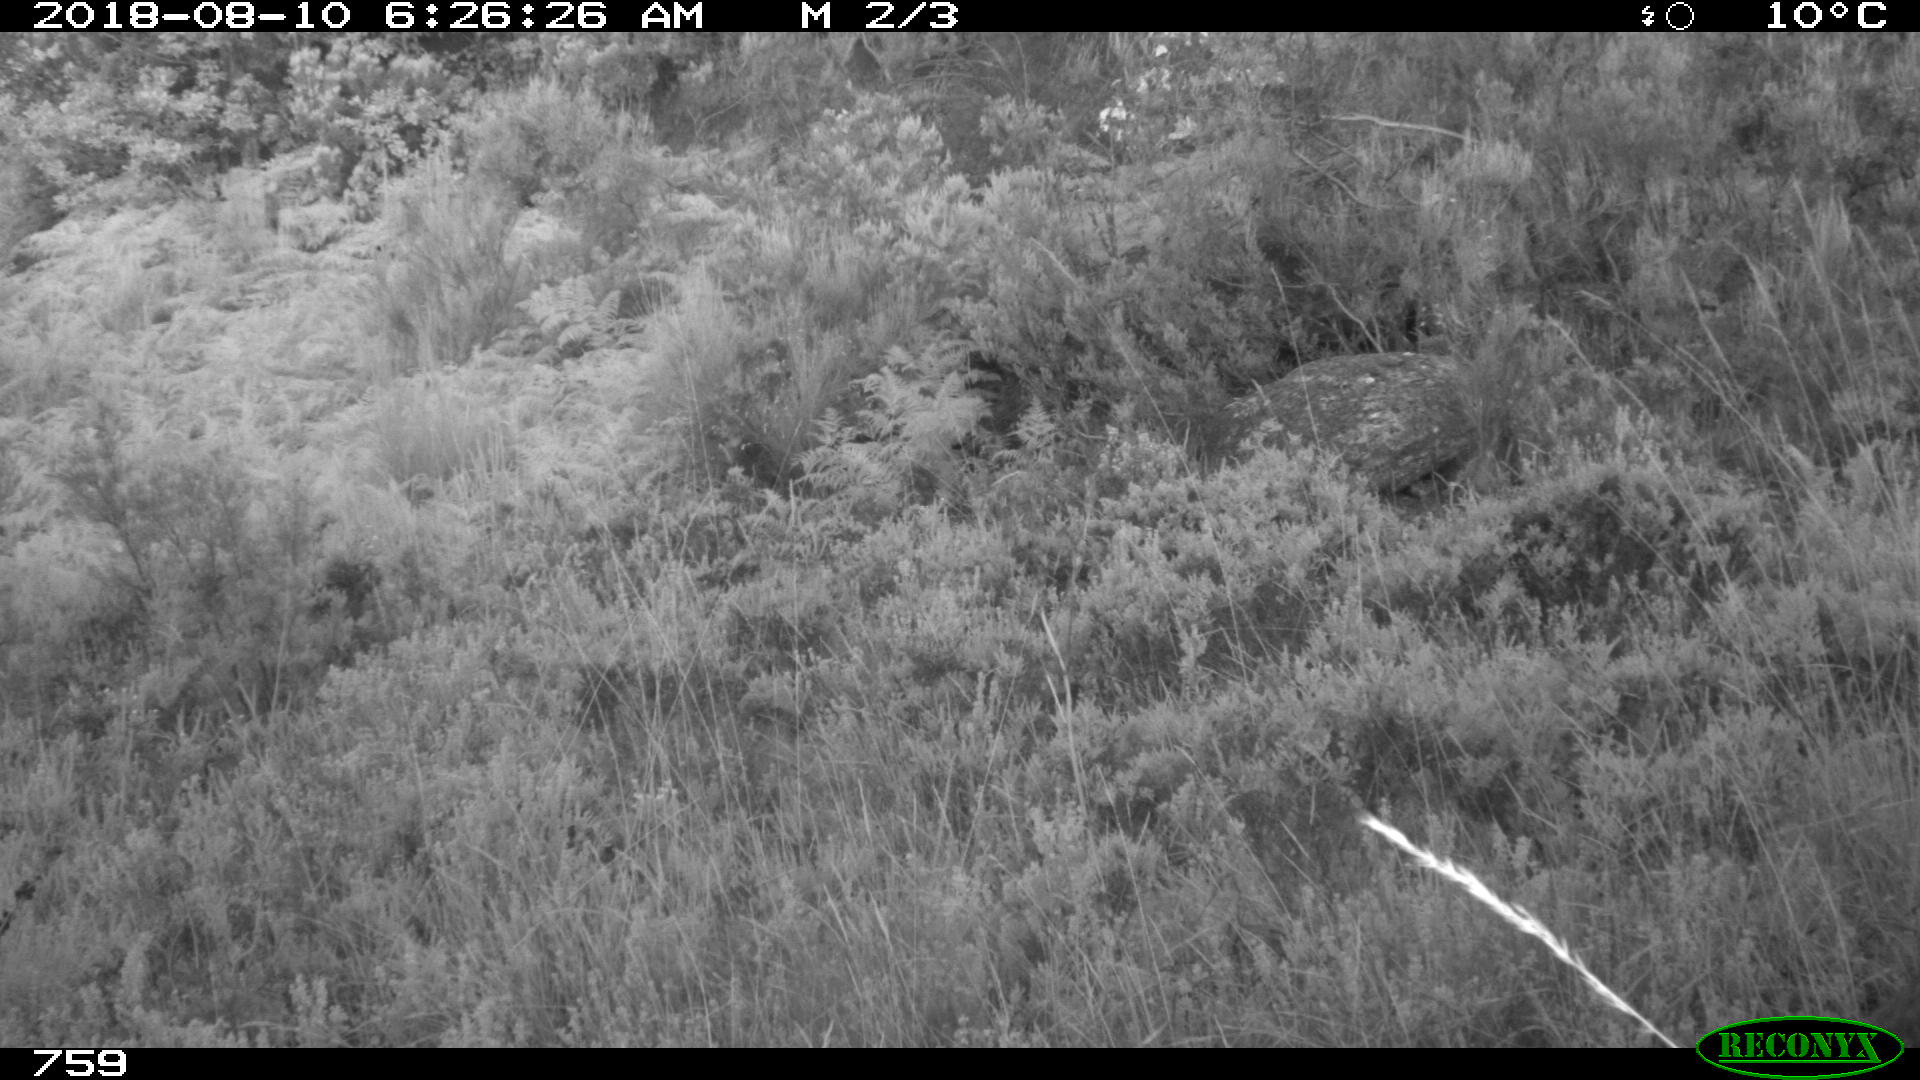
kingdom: Animalia
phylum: Chordata
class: Mammalia
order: Artiodactyla
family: Cervidae
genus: Capreolus
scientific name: Capreolus capreolus
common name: Western roe deer
